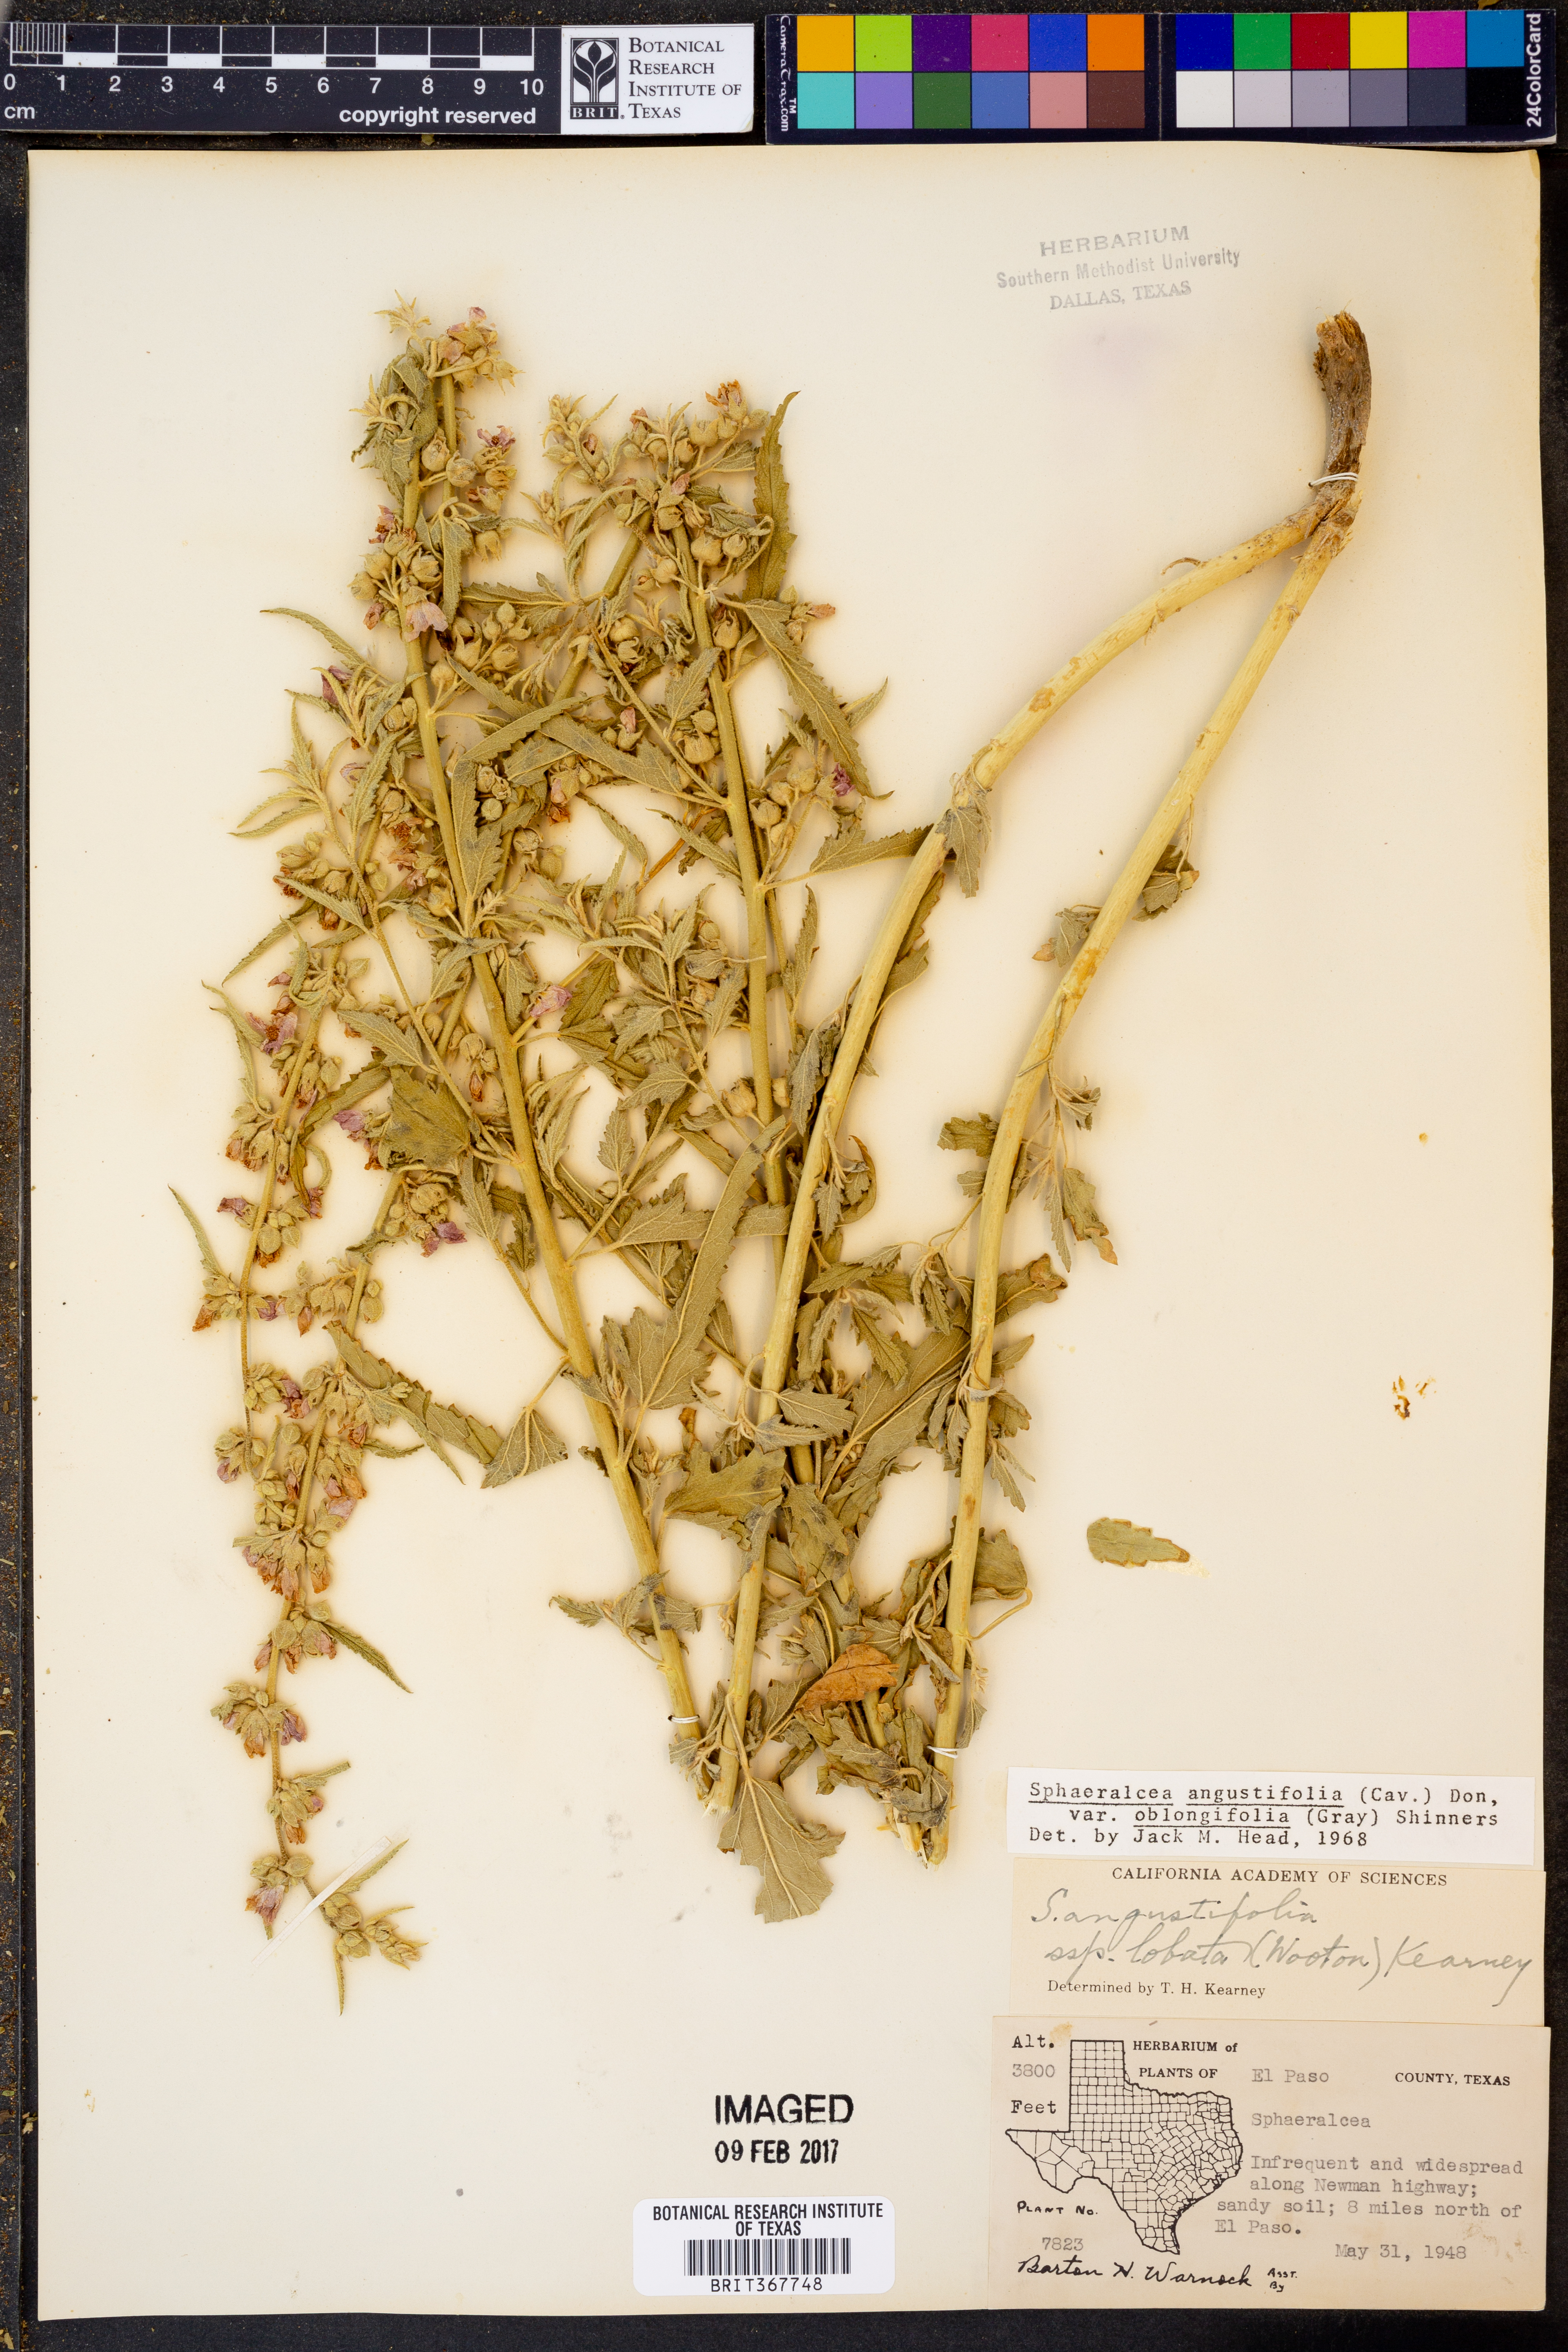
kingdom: Plantae
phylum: Tracheophyta
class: Magnoliopsida
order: Malvales
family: Malvaceae
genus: Sphaeralcea
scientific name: Sphaeralcea angustifolia
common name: Copper globe-mallow
